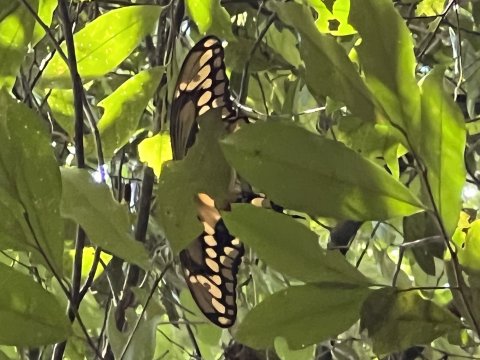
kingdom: Animalia
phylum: Arthropoda
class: Insecta
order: Lepidoptera
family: Papilionidae
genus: Papilio
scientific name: Papilio cresphontes
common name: Eastern Giant Swallowtail
